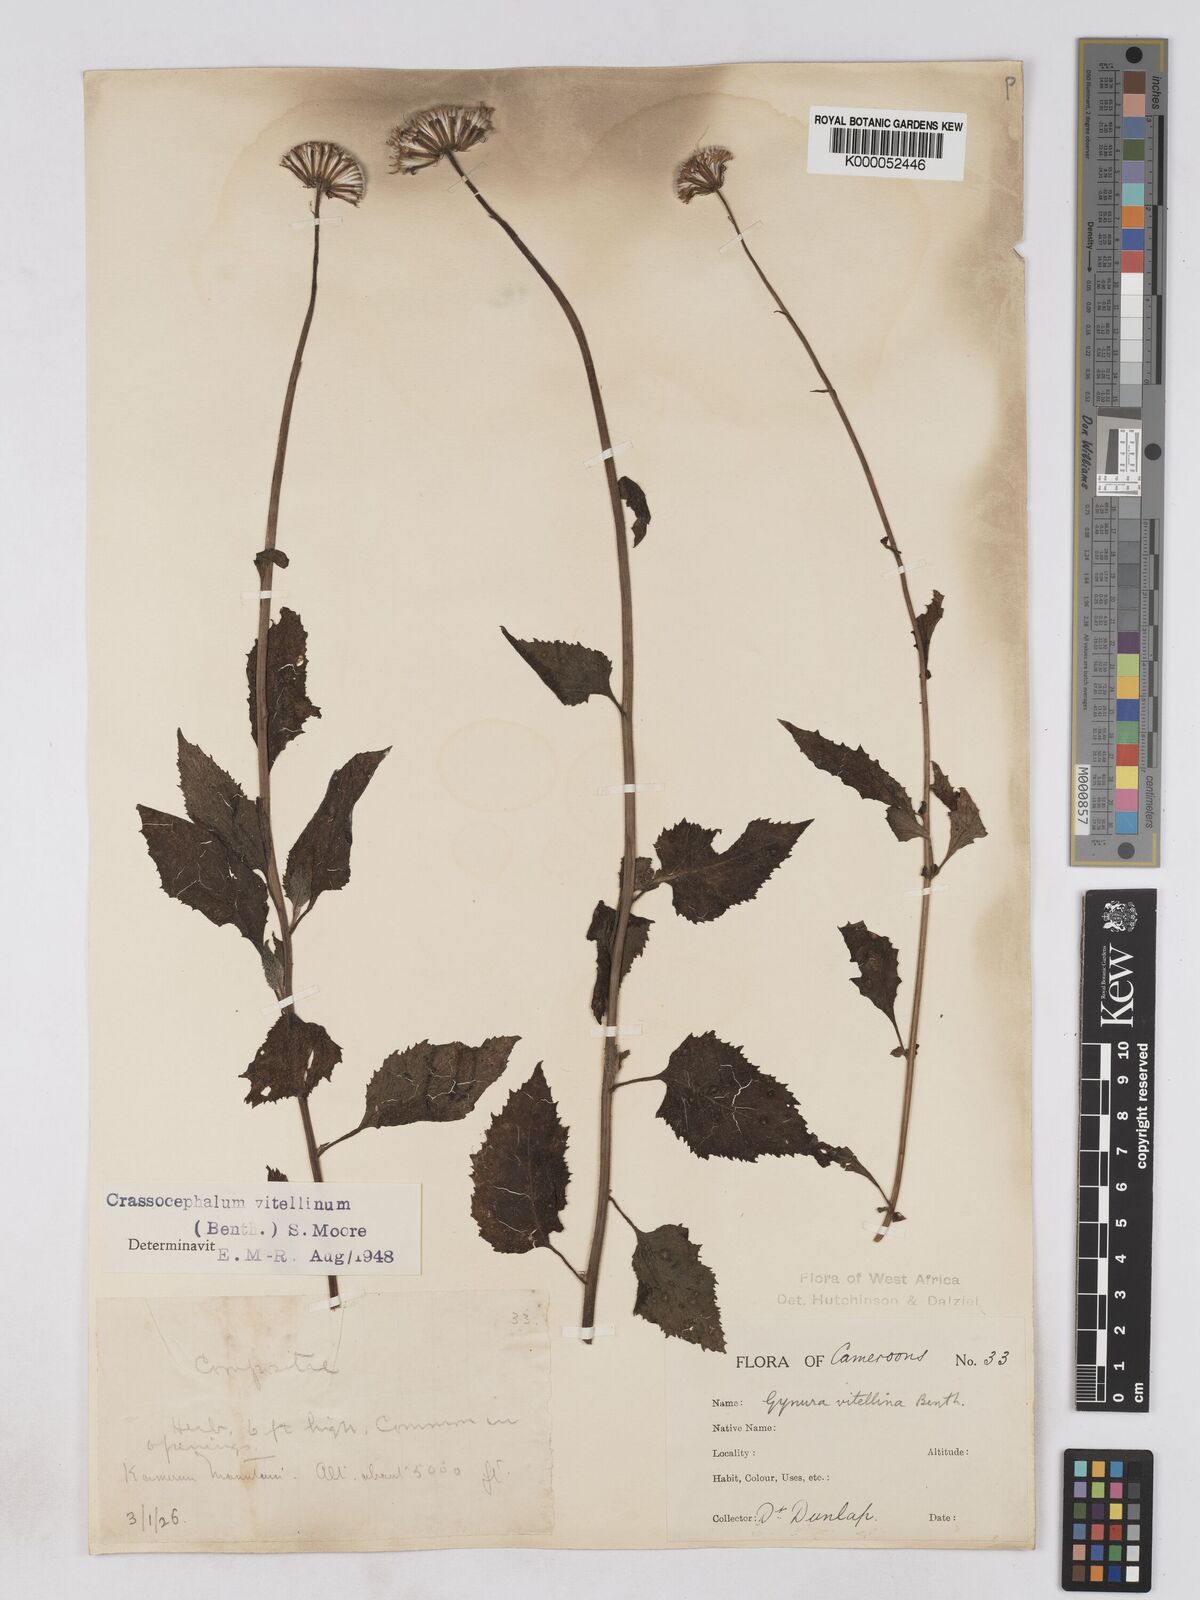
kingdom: Plantae
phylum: Tracheophyta
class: Magnoliopsida
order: Asterales
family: Asteraceae
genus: Crassocephalum
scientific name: Crassocephalum bougheyanum
